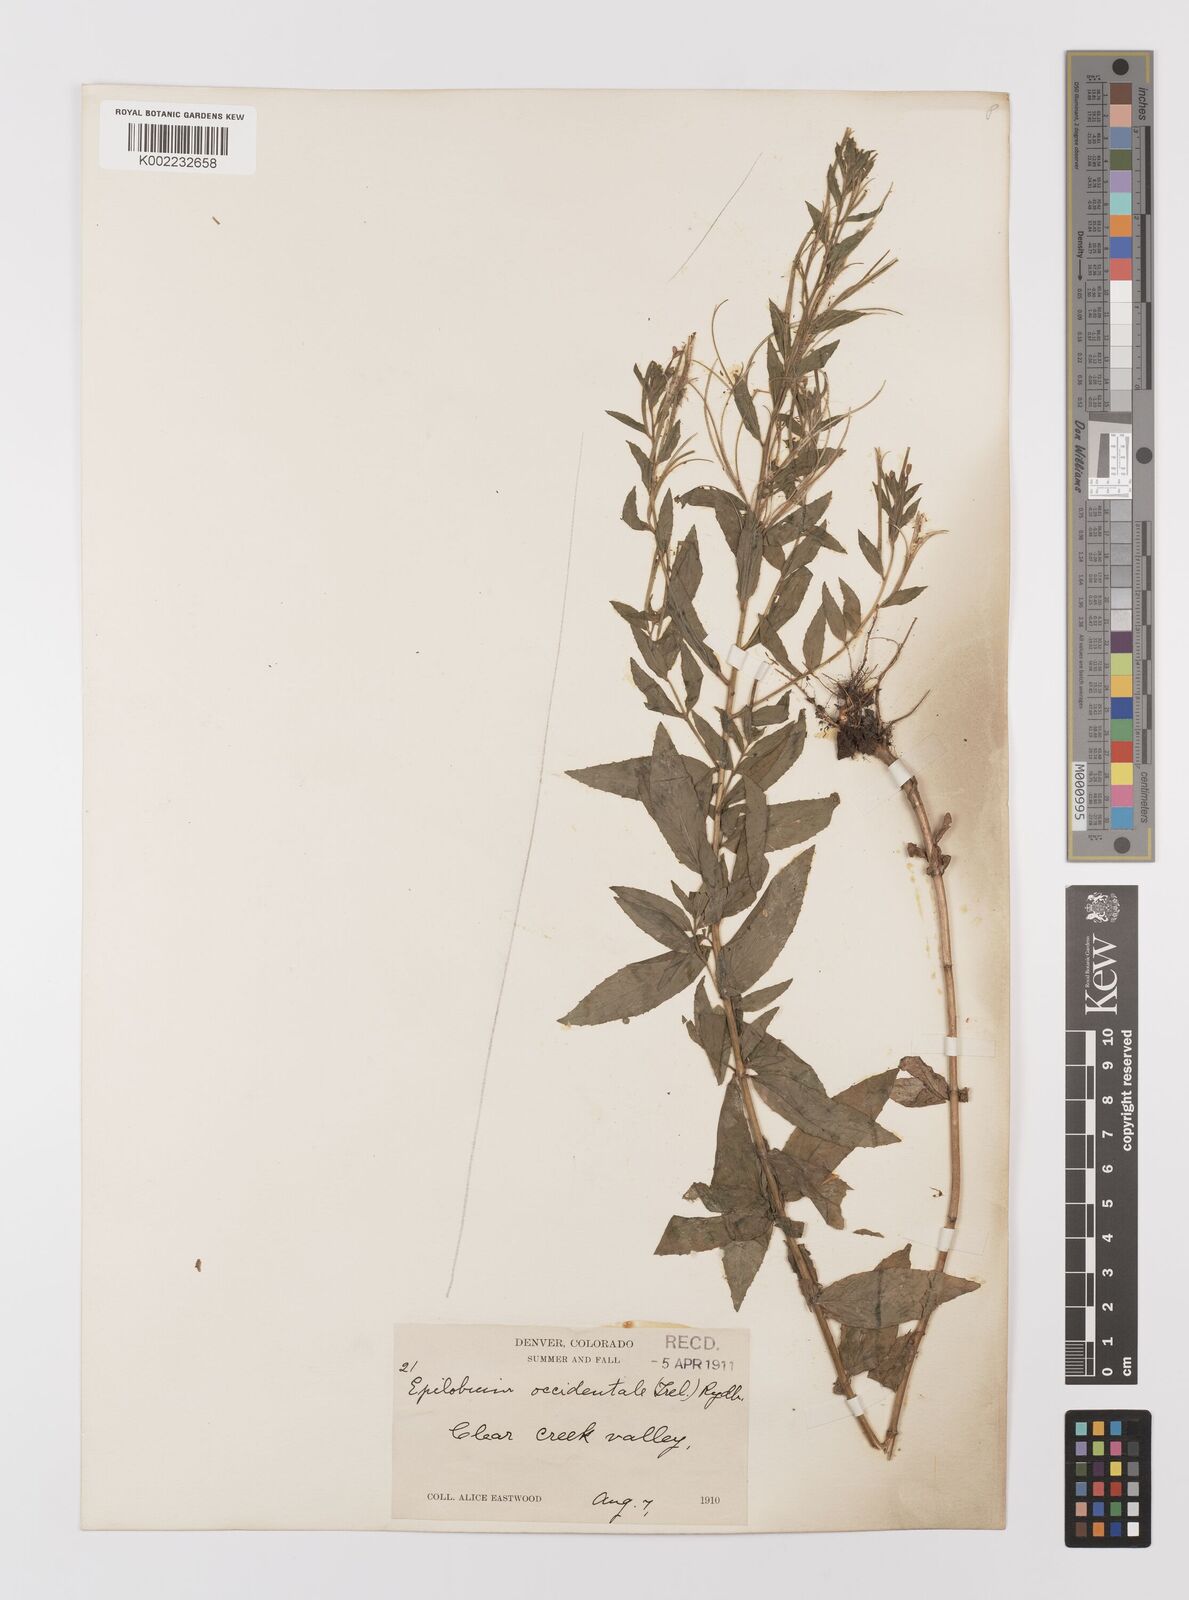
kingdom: Plantae
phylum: Tracheophyta
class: Magnoliopsida
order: Myrtales
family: Onagraceae
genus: Epilobium
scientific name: Epilobium ciliatum
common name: American willowherb
